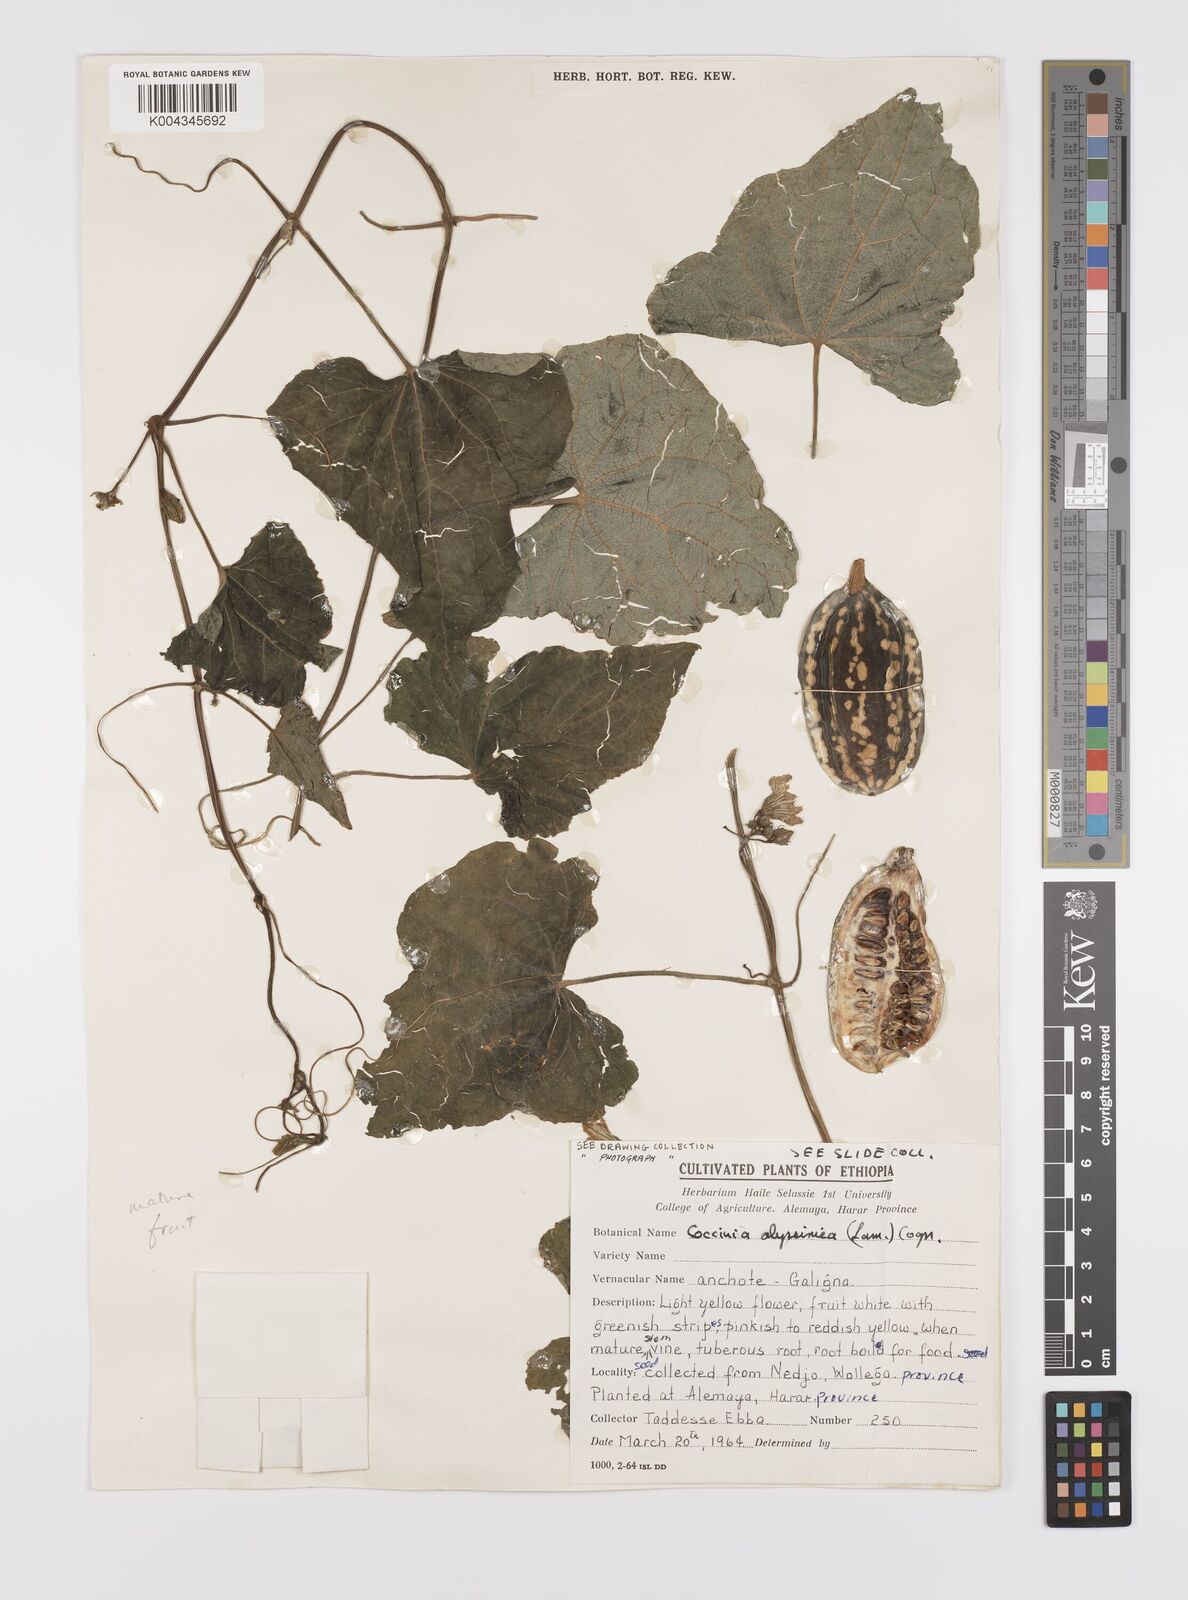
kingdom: Plantae
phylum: Tracheophyta
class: Magnoliopsida
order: Cucurbitales
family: Cucurbitaceae
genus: Coccinia
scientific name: Coccinia abyssinica
